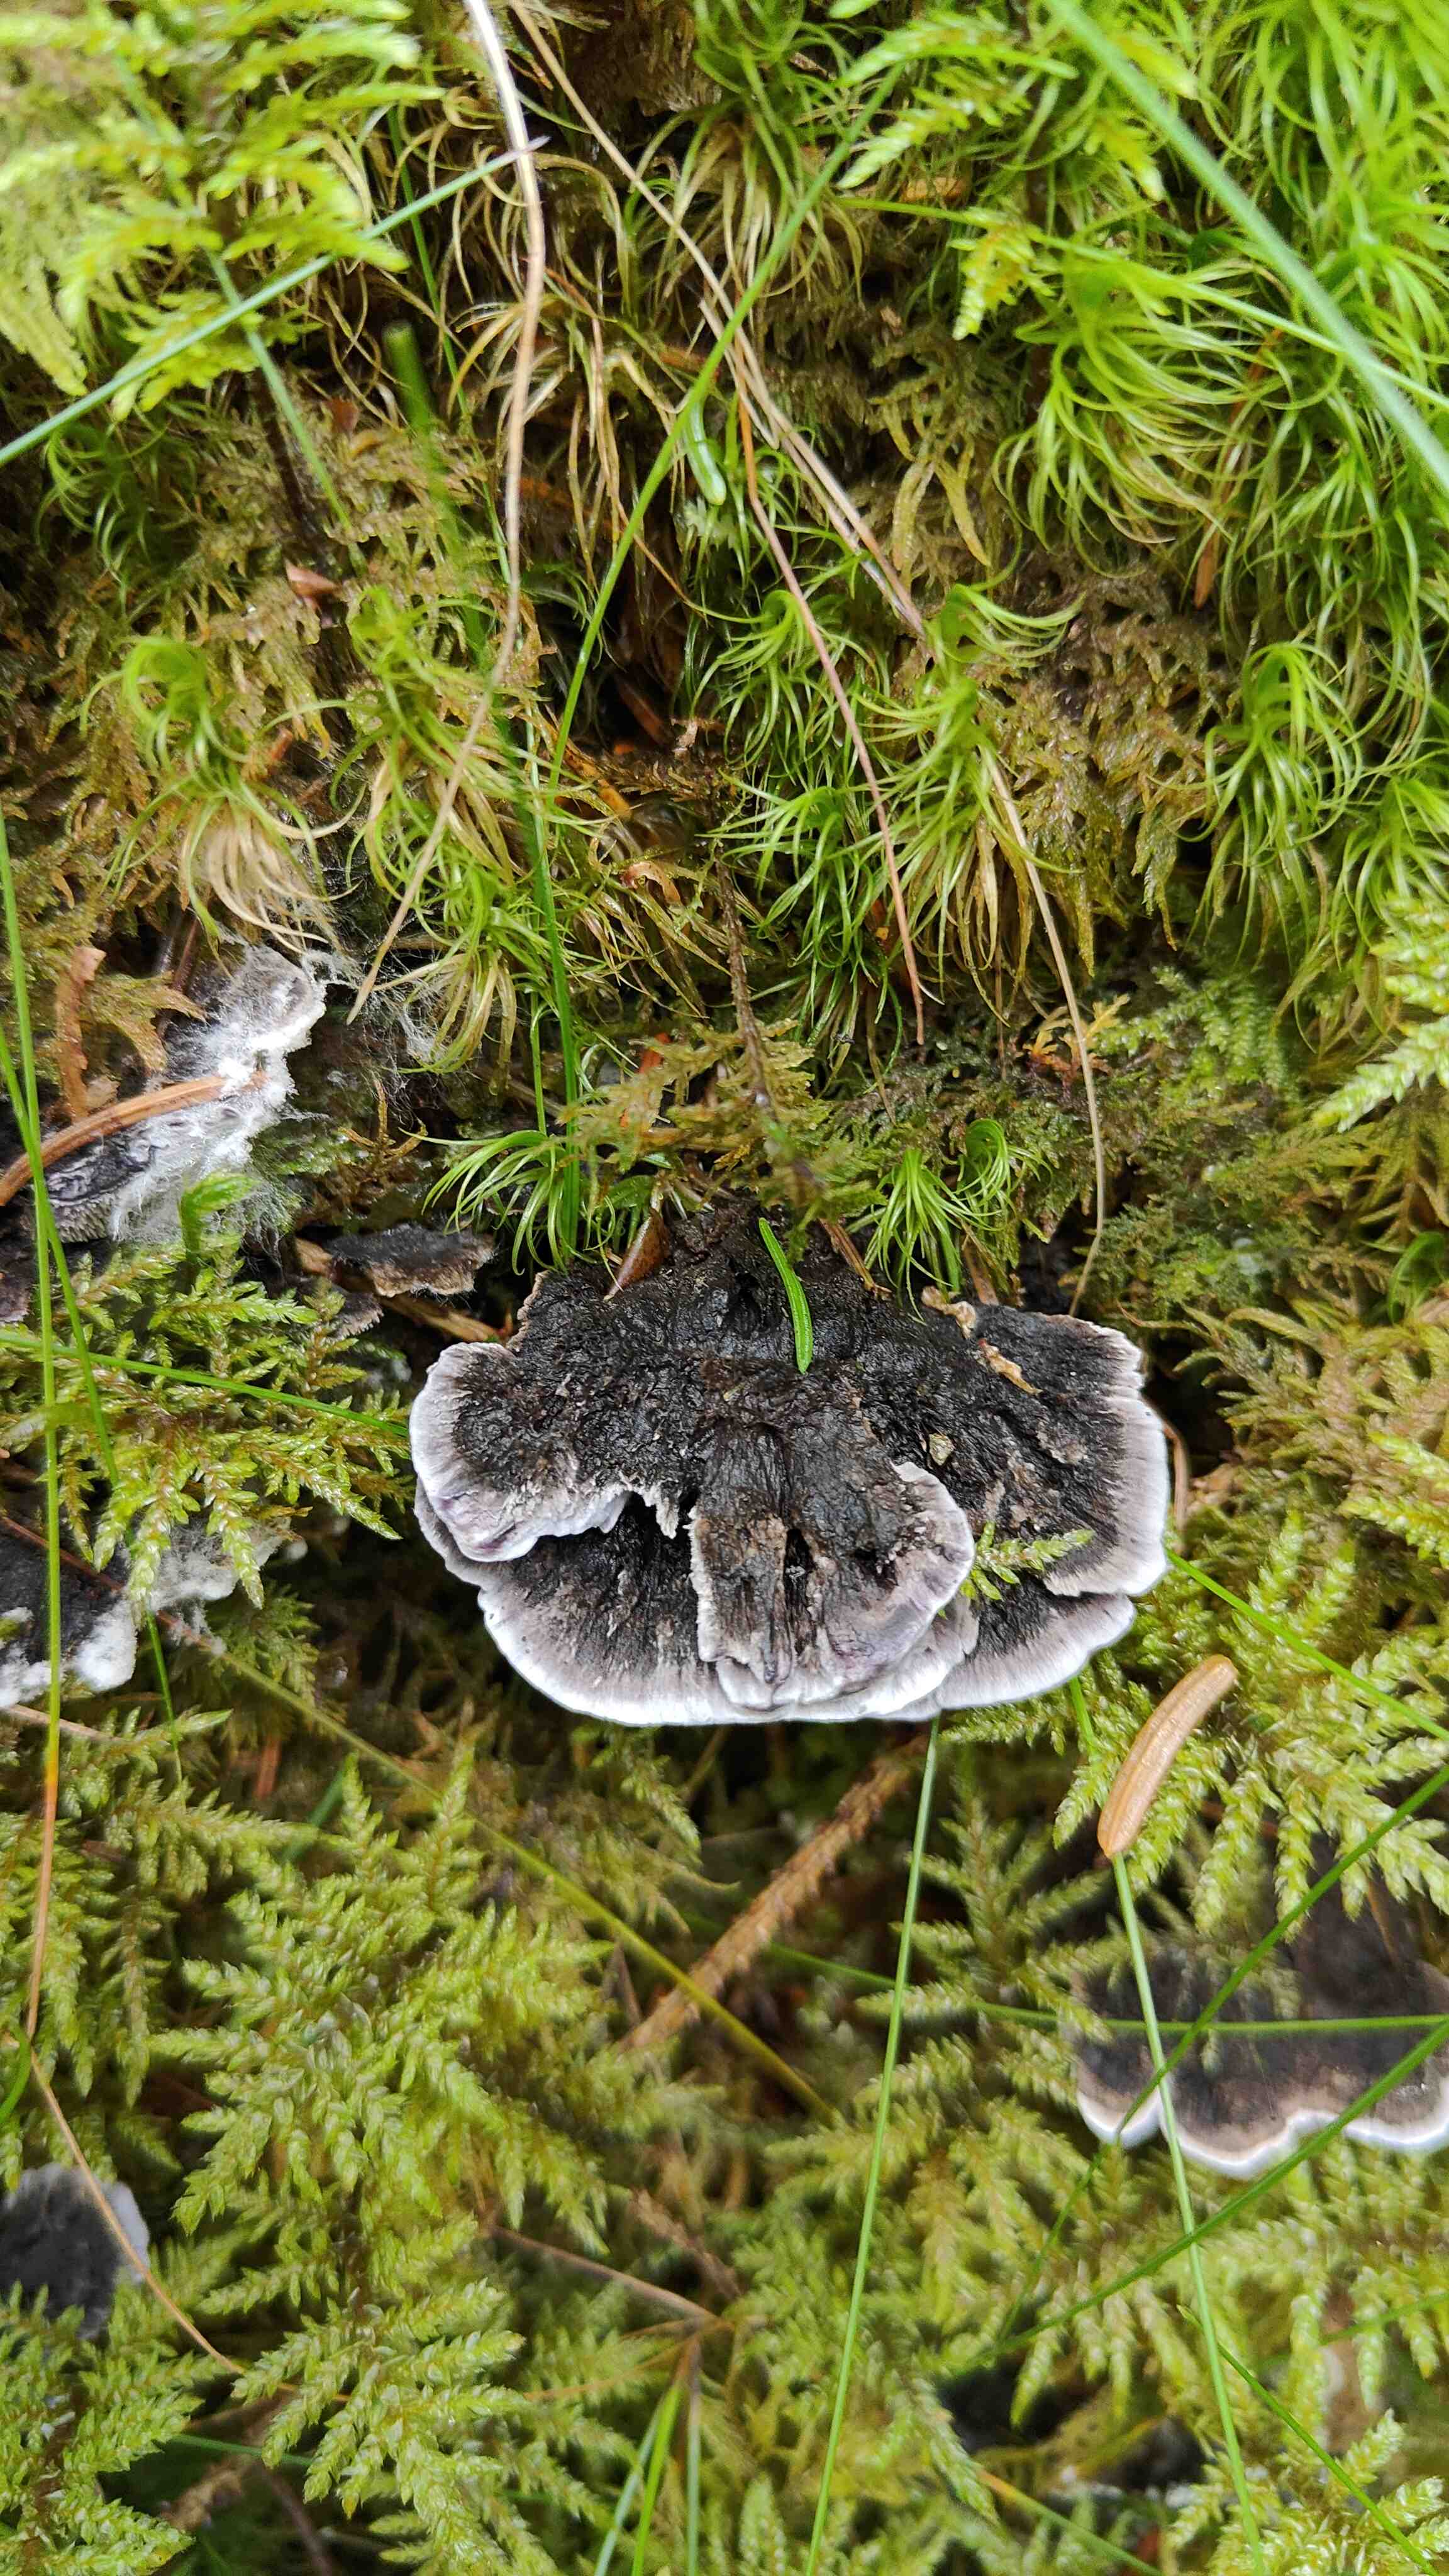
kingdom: Fungi
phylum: Basidiomycota
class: Agaricomycetes
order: Thelephorales
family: Thelephoraceae
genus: Phellodon
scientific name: Phellodon
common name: mørk duftpigsvamp
